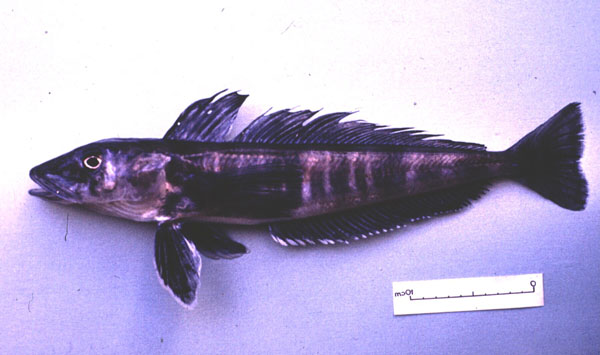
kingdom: Animalia
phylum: Chordata
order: Perciformes
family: Channichthyidae
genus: Champsocephalus
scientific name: Champsocephalus gunnari
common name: Mackerel icefish
